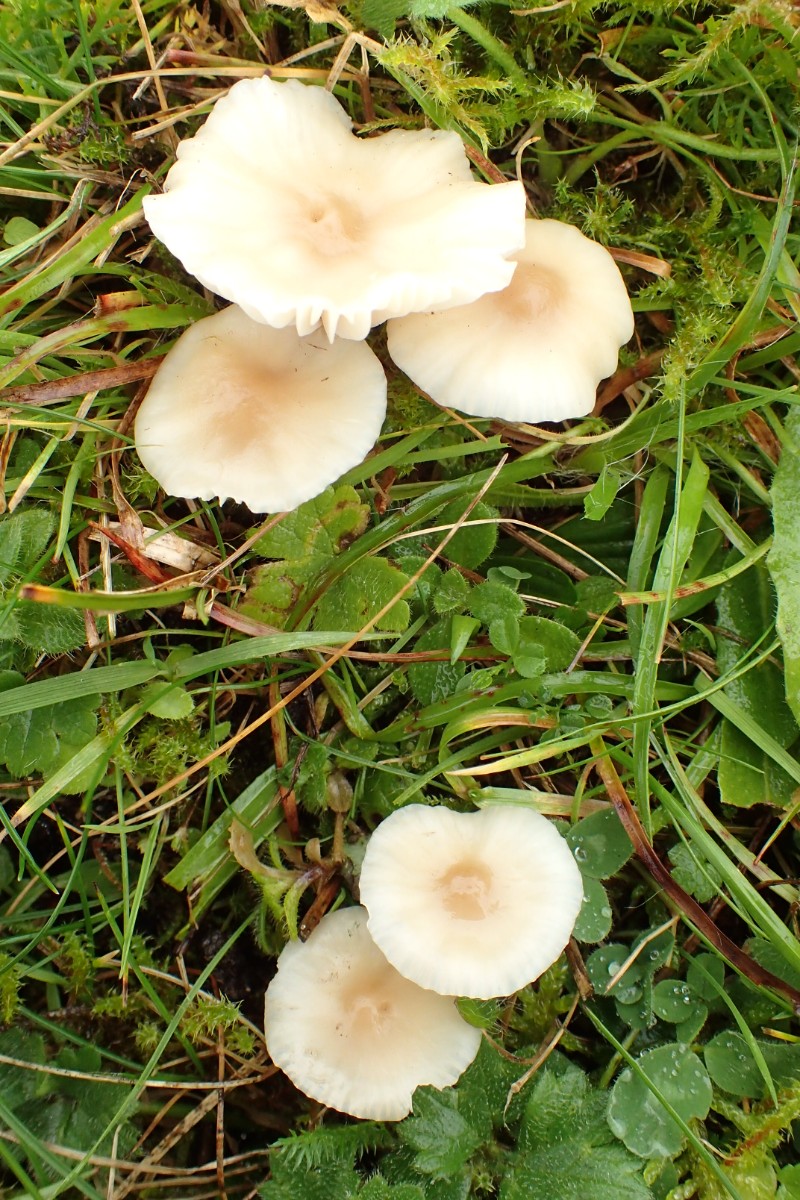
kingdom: Fungi
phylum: Basidiomycota
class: Agaricomycetes
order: Agaricales
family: Hygrophoraceae
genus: Cuphophyllus
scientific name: Cuphophyllus virgineus
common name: brunøjet vokshat
